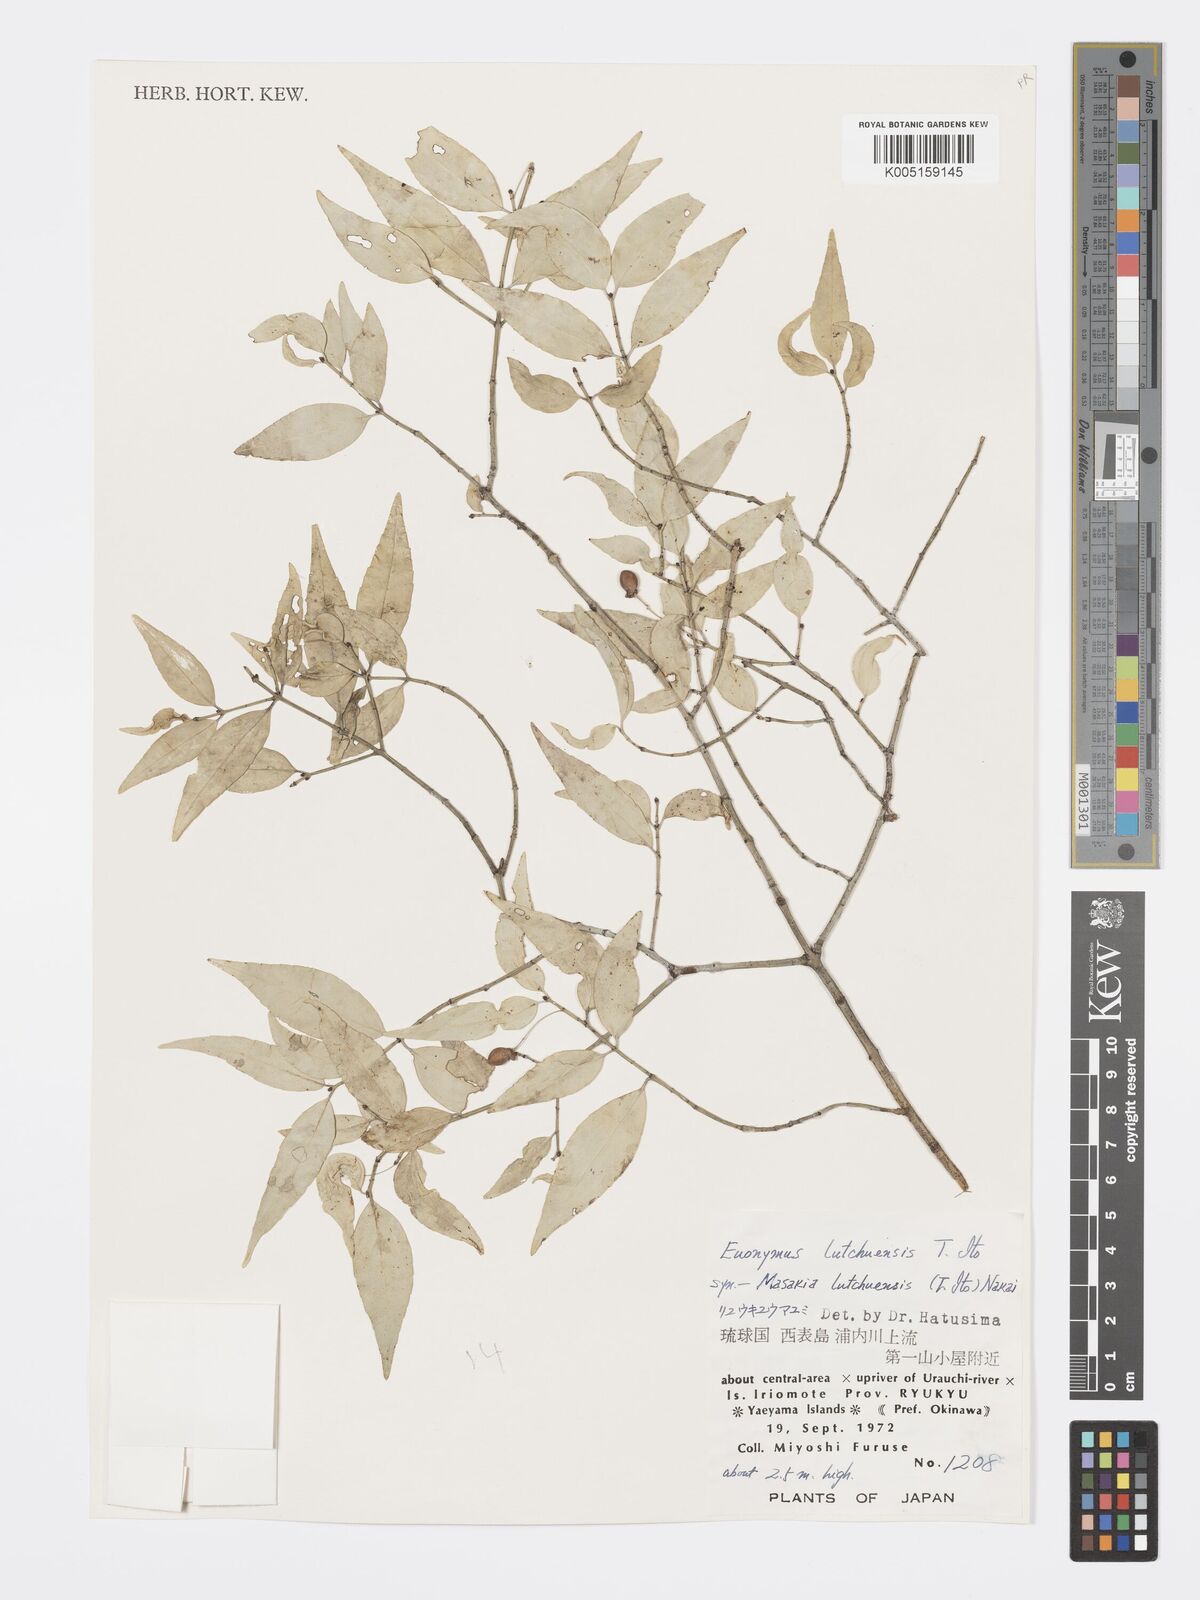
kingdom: Plantae
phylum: Tracheophyta
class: Magnoliopsida
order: Celastrales
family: Celastraceae
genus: Euonymus
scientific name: Euonymus lutchuensis
